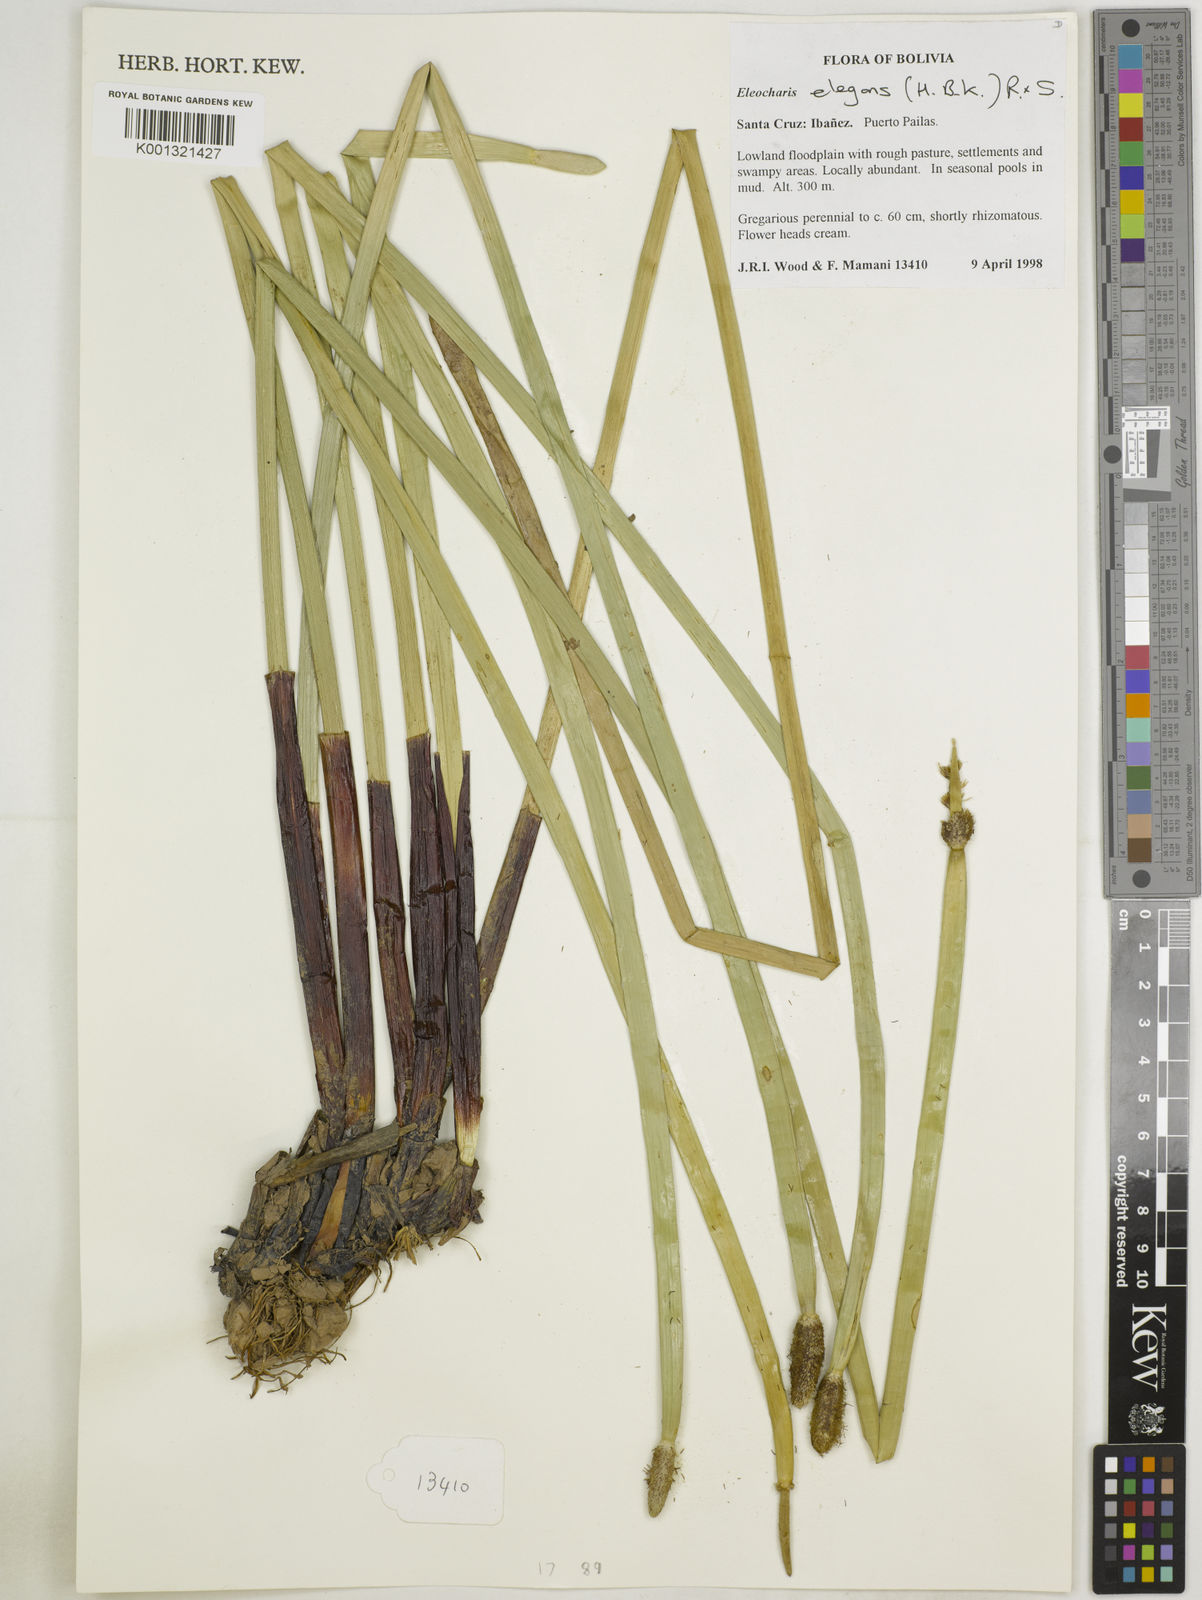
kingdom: Plantae
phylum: Tracheophyta
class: Liliopsida
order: Poales
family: Cyperaceae
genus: Eleocharis
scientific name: Eleocharis elegans
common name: Elegant spike-rush
